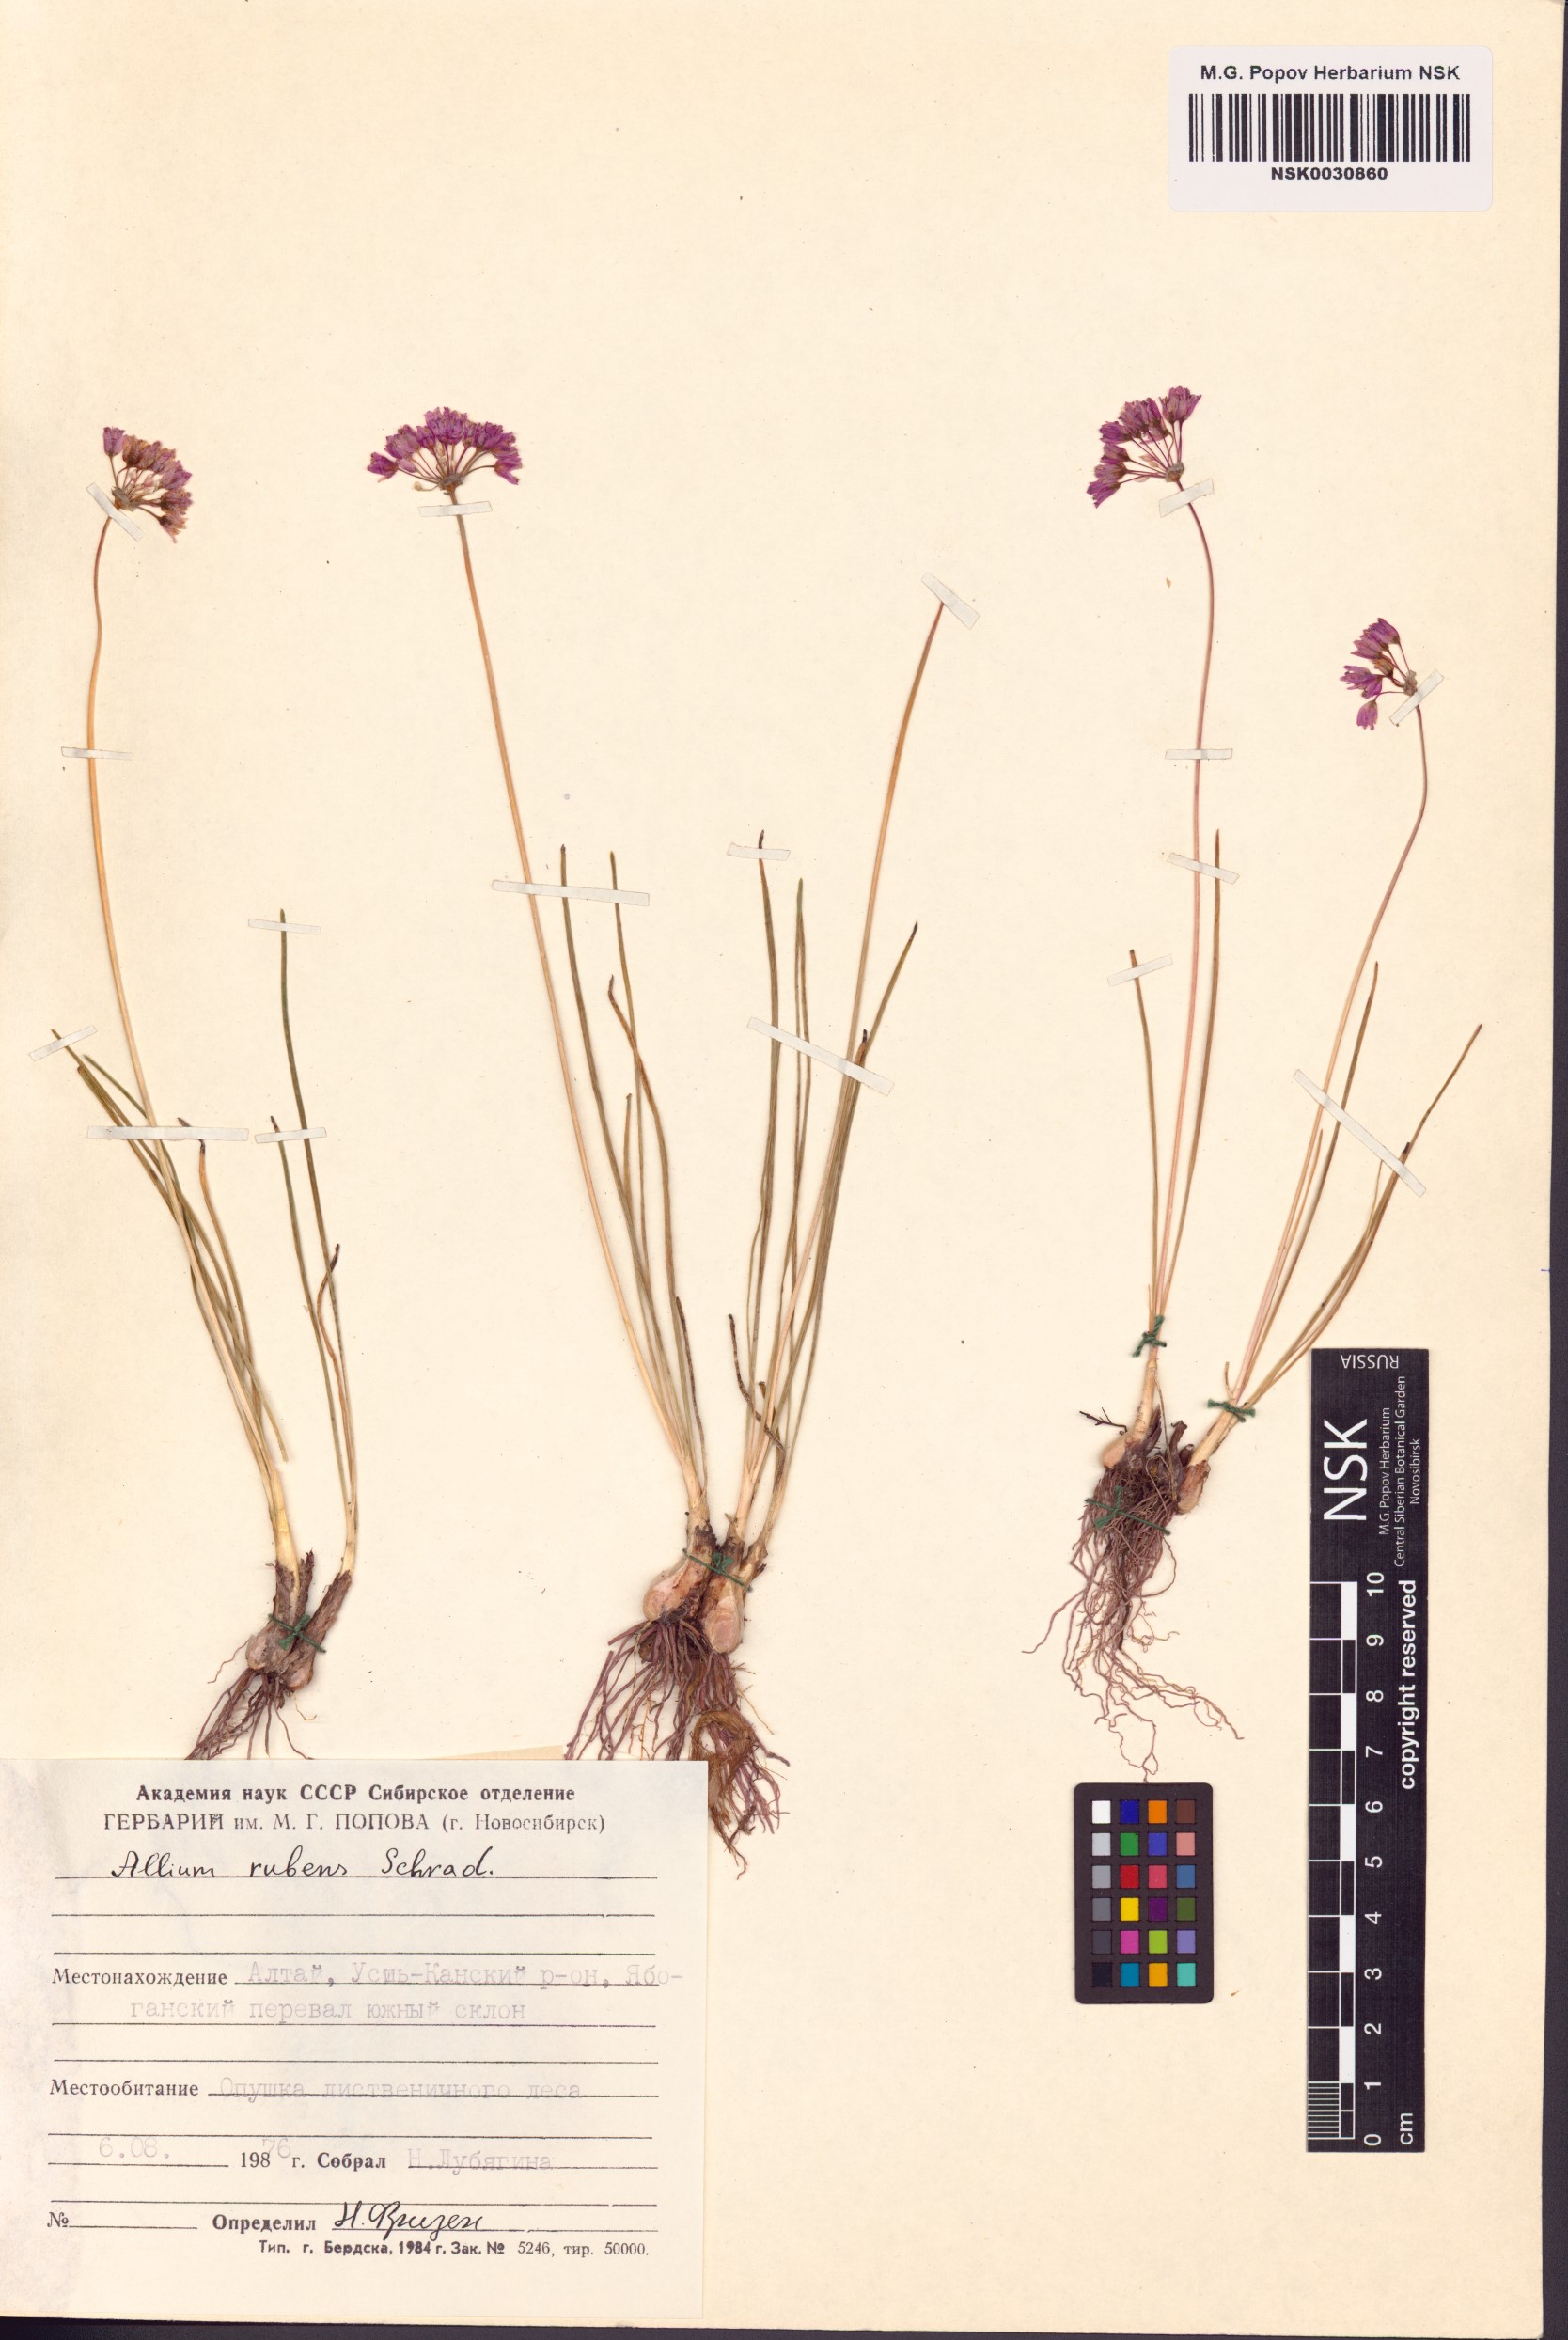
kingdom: Plantae
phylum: Tracheophyta
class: Liliopsida
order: Asparagales
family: Amaryllidaceae
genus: Allium
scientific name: Allium rubens
